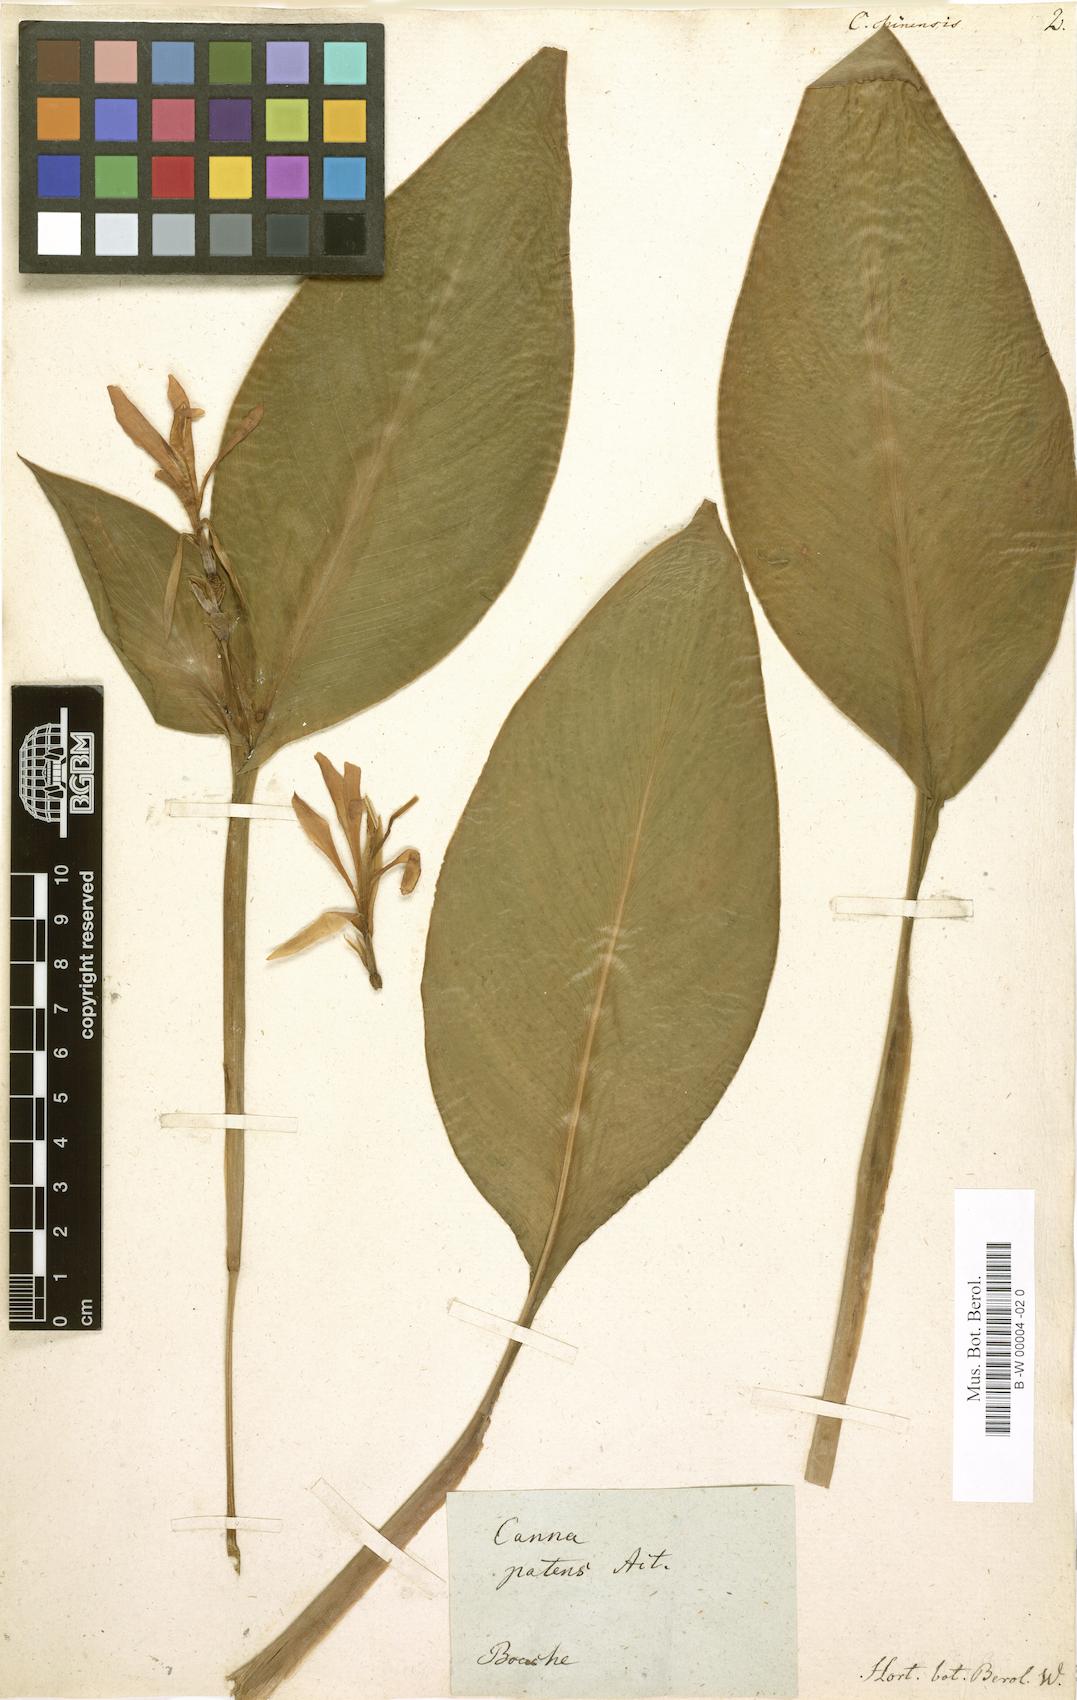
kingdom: Plantae
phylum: Tracheophyta
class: Liliopsida
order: Zingiberales
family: Cannaceae
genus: Canna
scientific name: Canna indica
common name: Indian shot
